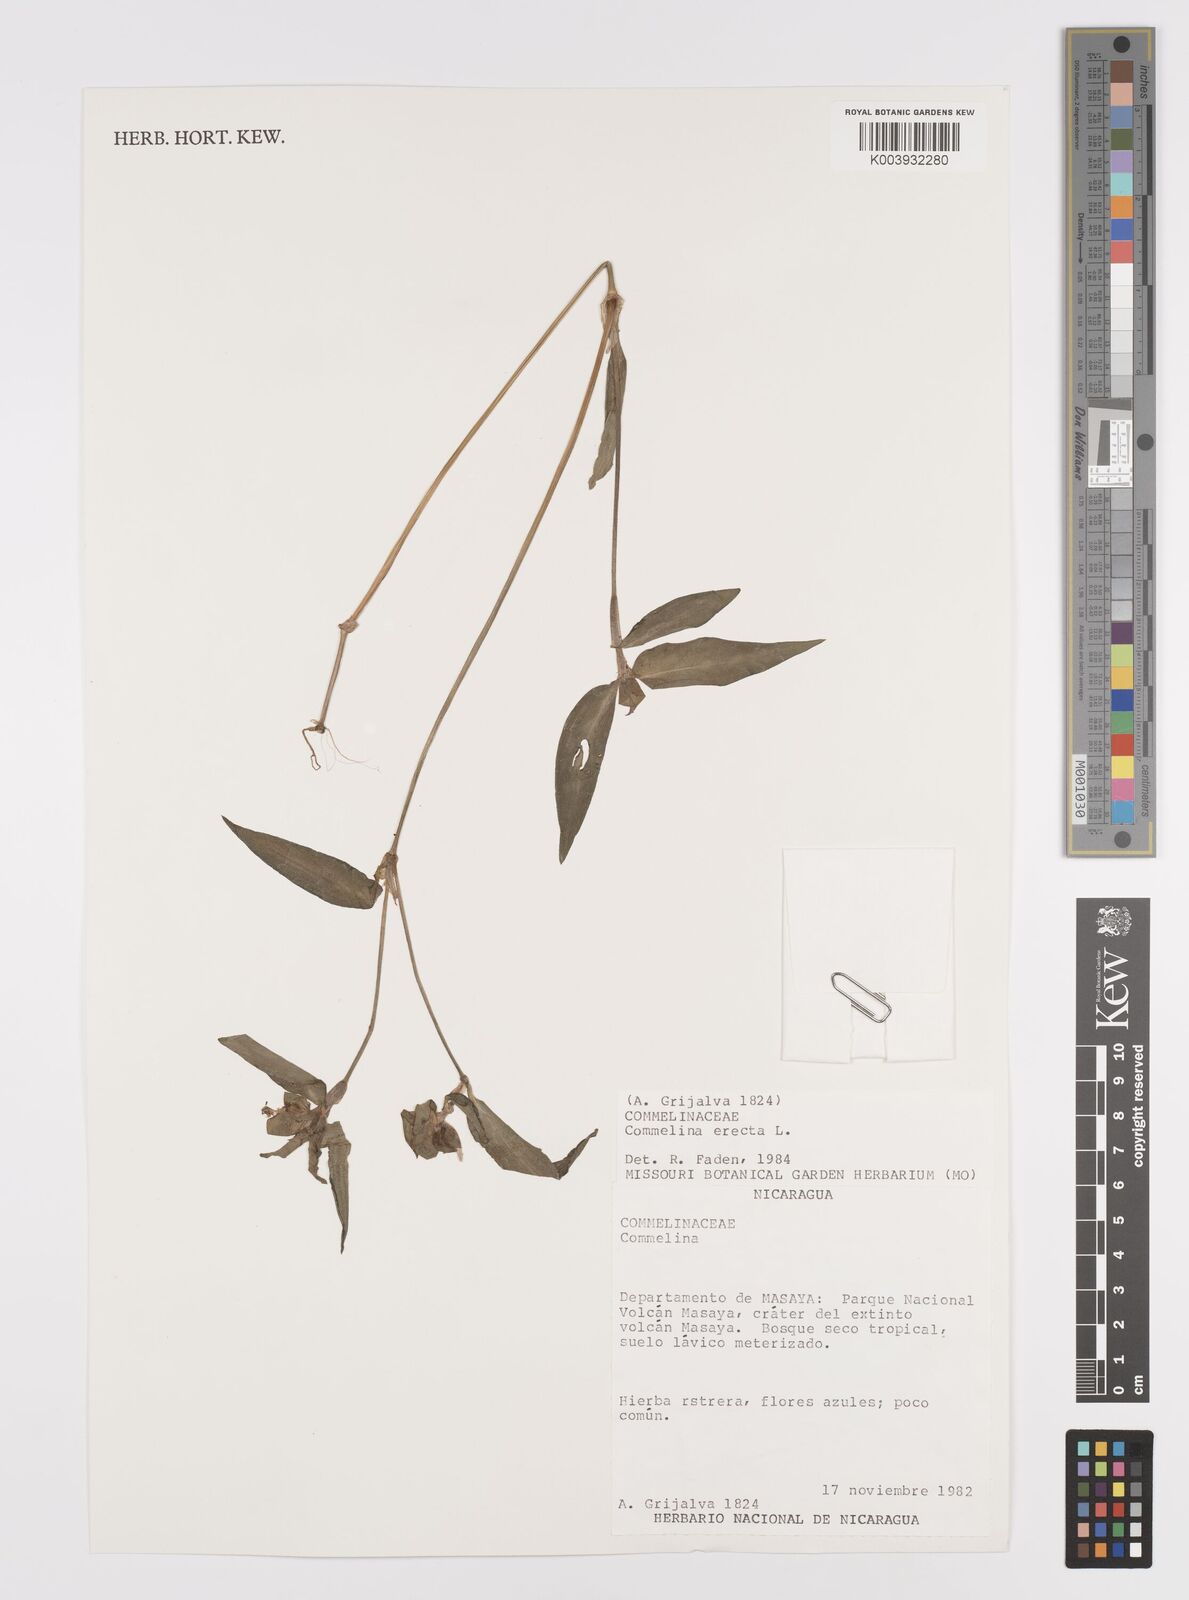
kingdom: Plantae
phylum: Tracheophyta
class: Liliopsida
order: Commelinales
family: Commelinaceae
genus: Commelina
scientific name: Commelina erecta
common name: Blousel blommetjie
